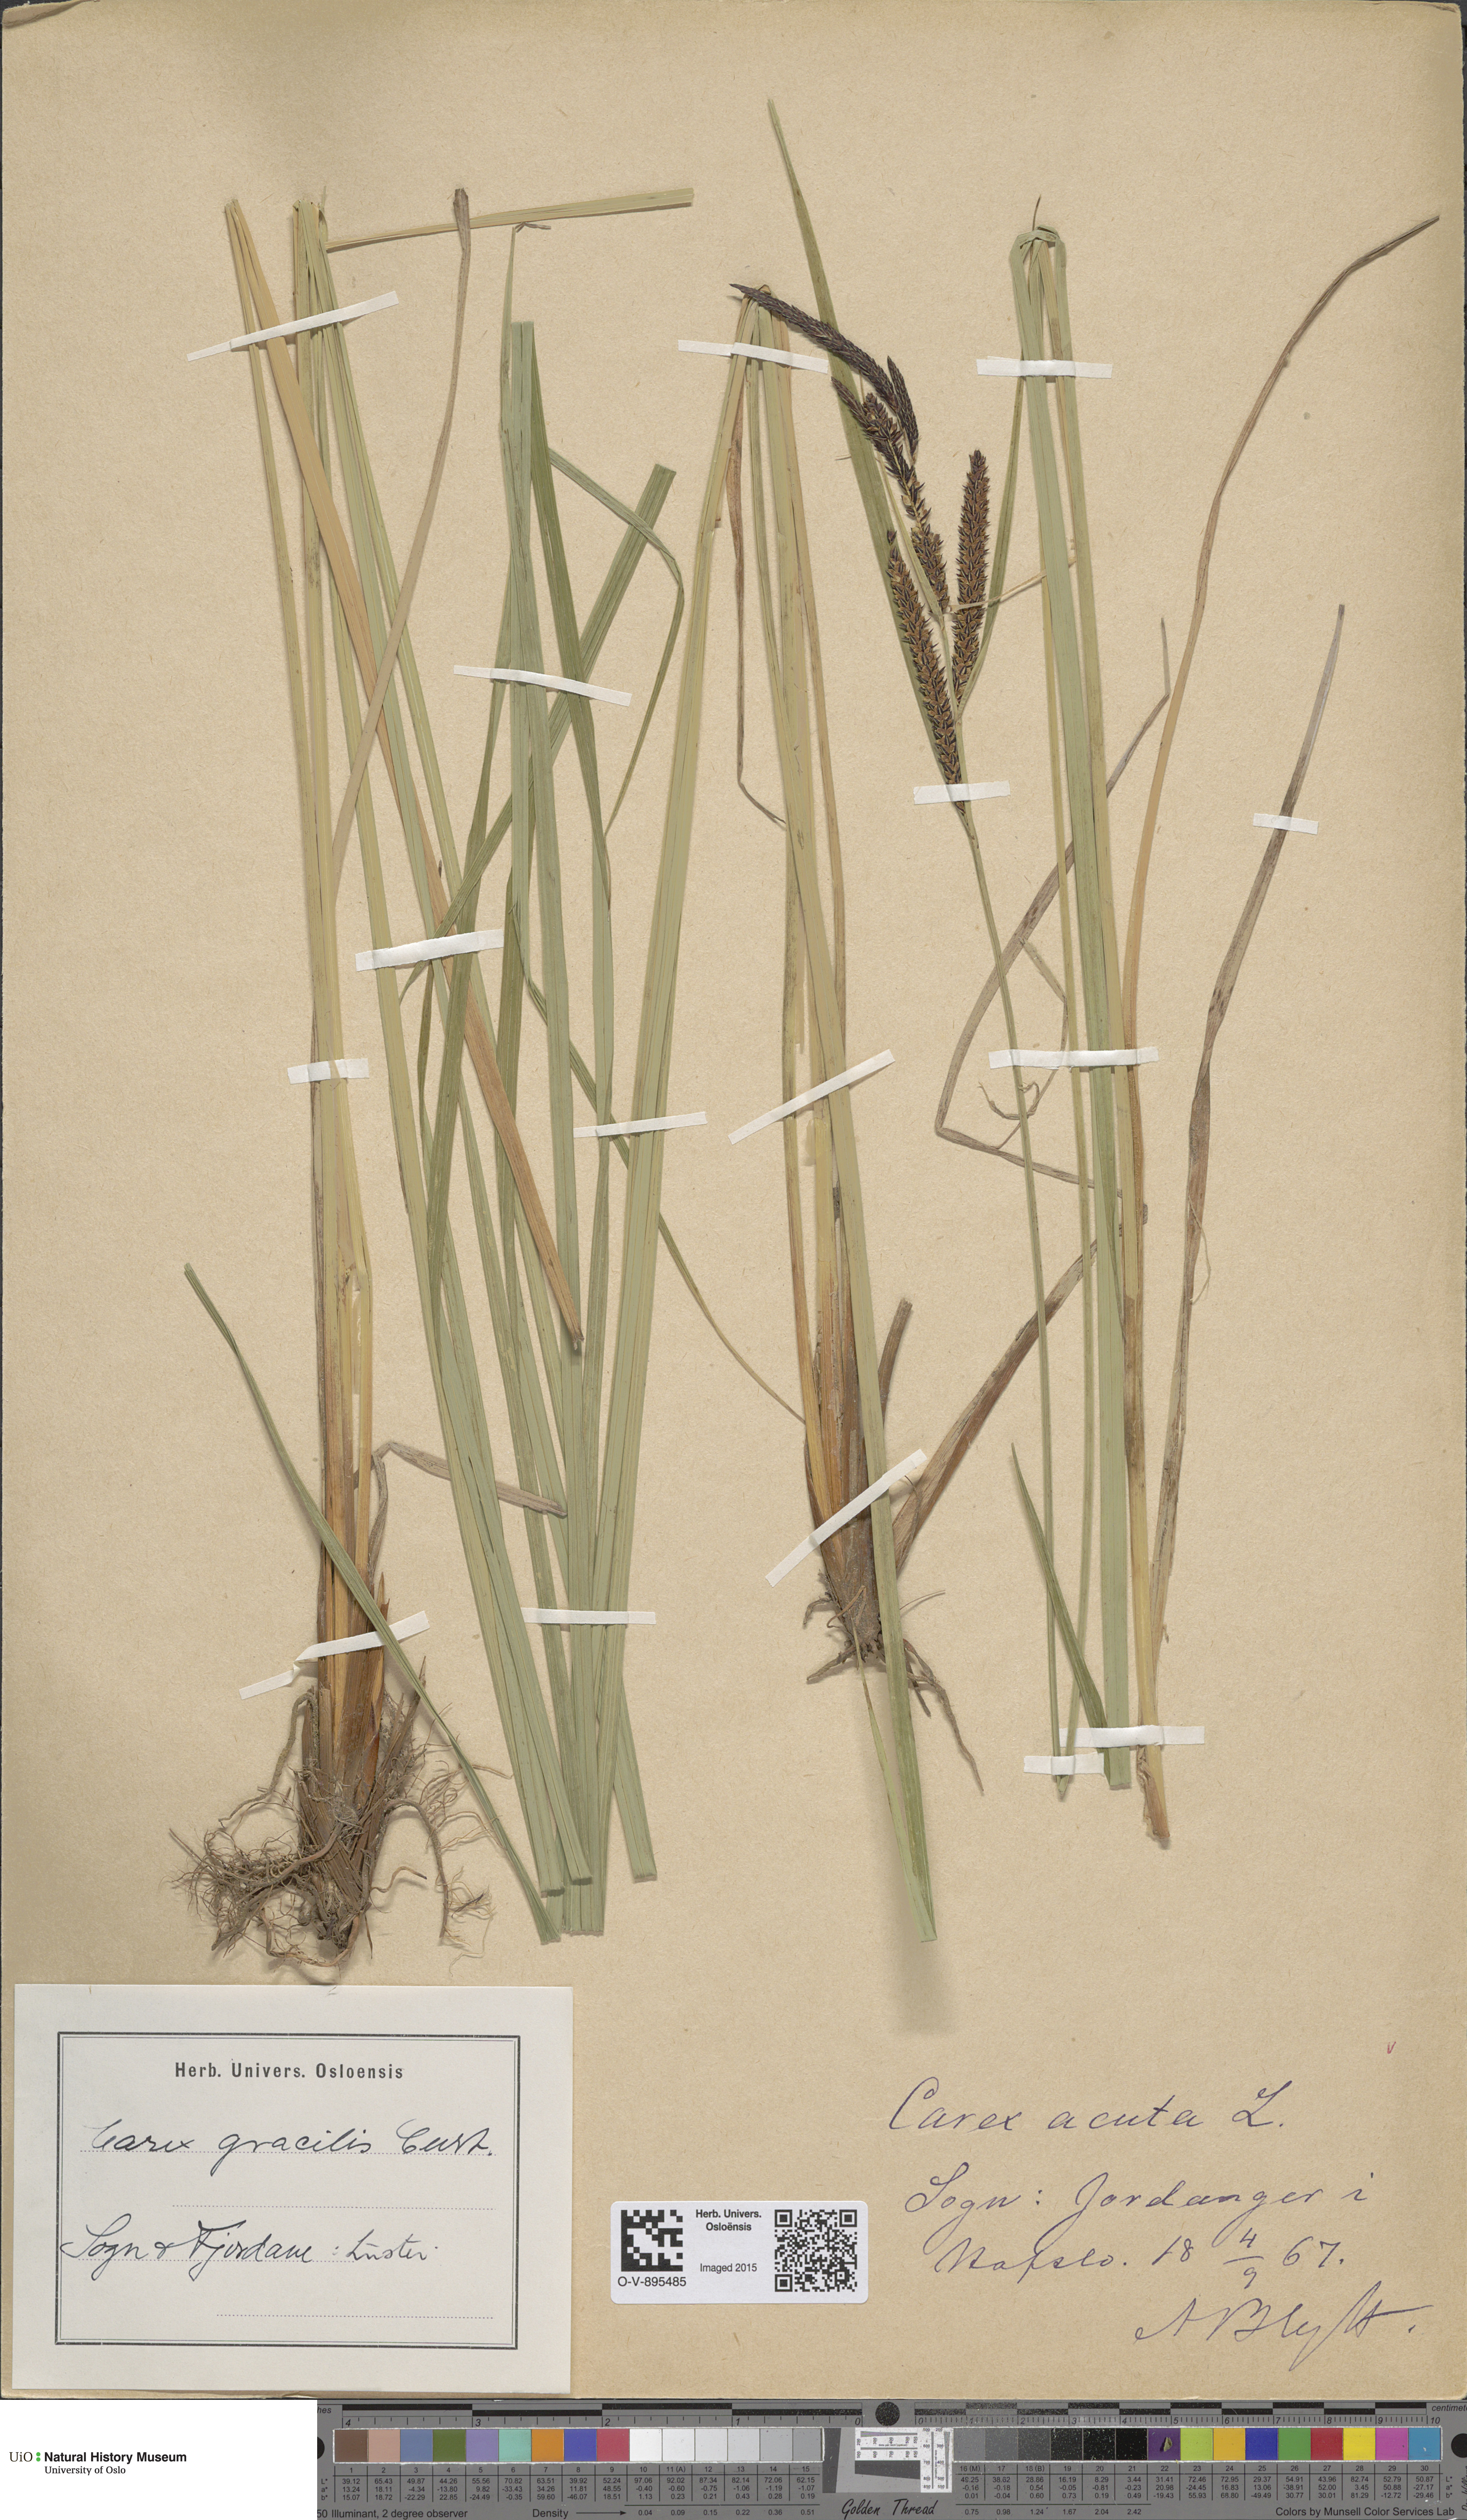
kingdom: Plantae
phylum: Tracheophyta
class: Liliopsida
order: Poales
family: Cyperaceae
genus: Carex
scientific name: Carex acuta
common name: Slender tufted-sedge
